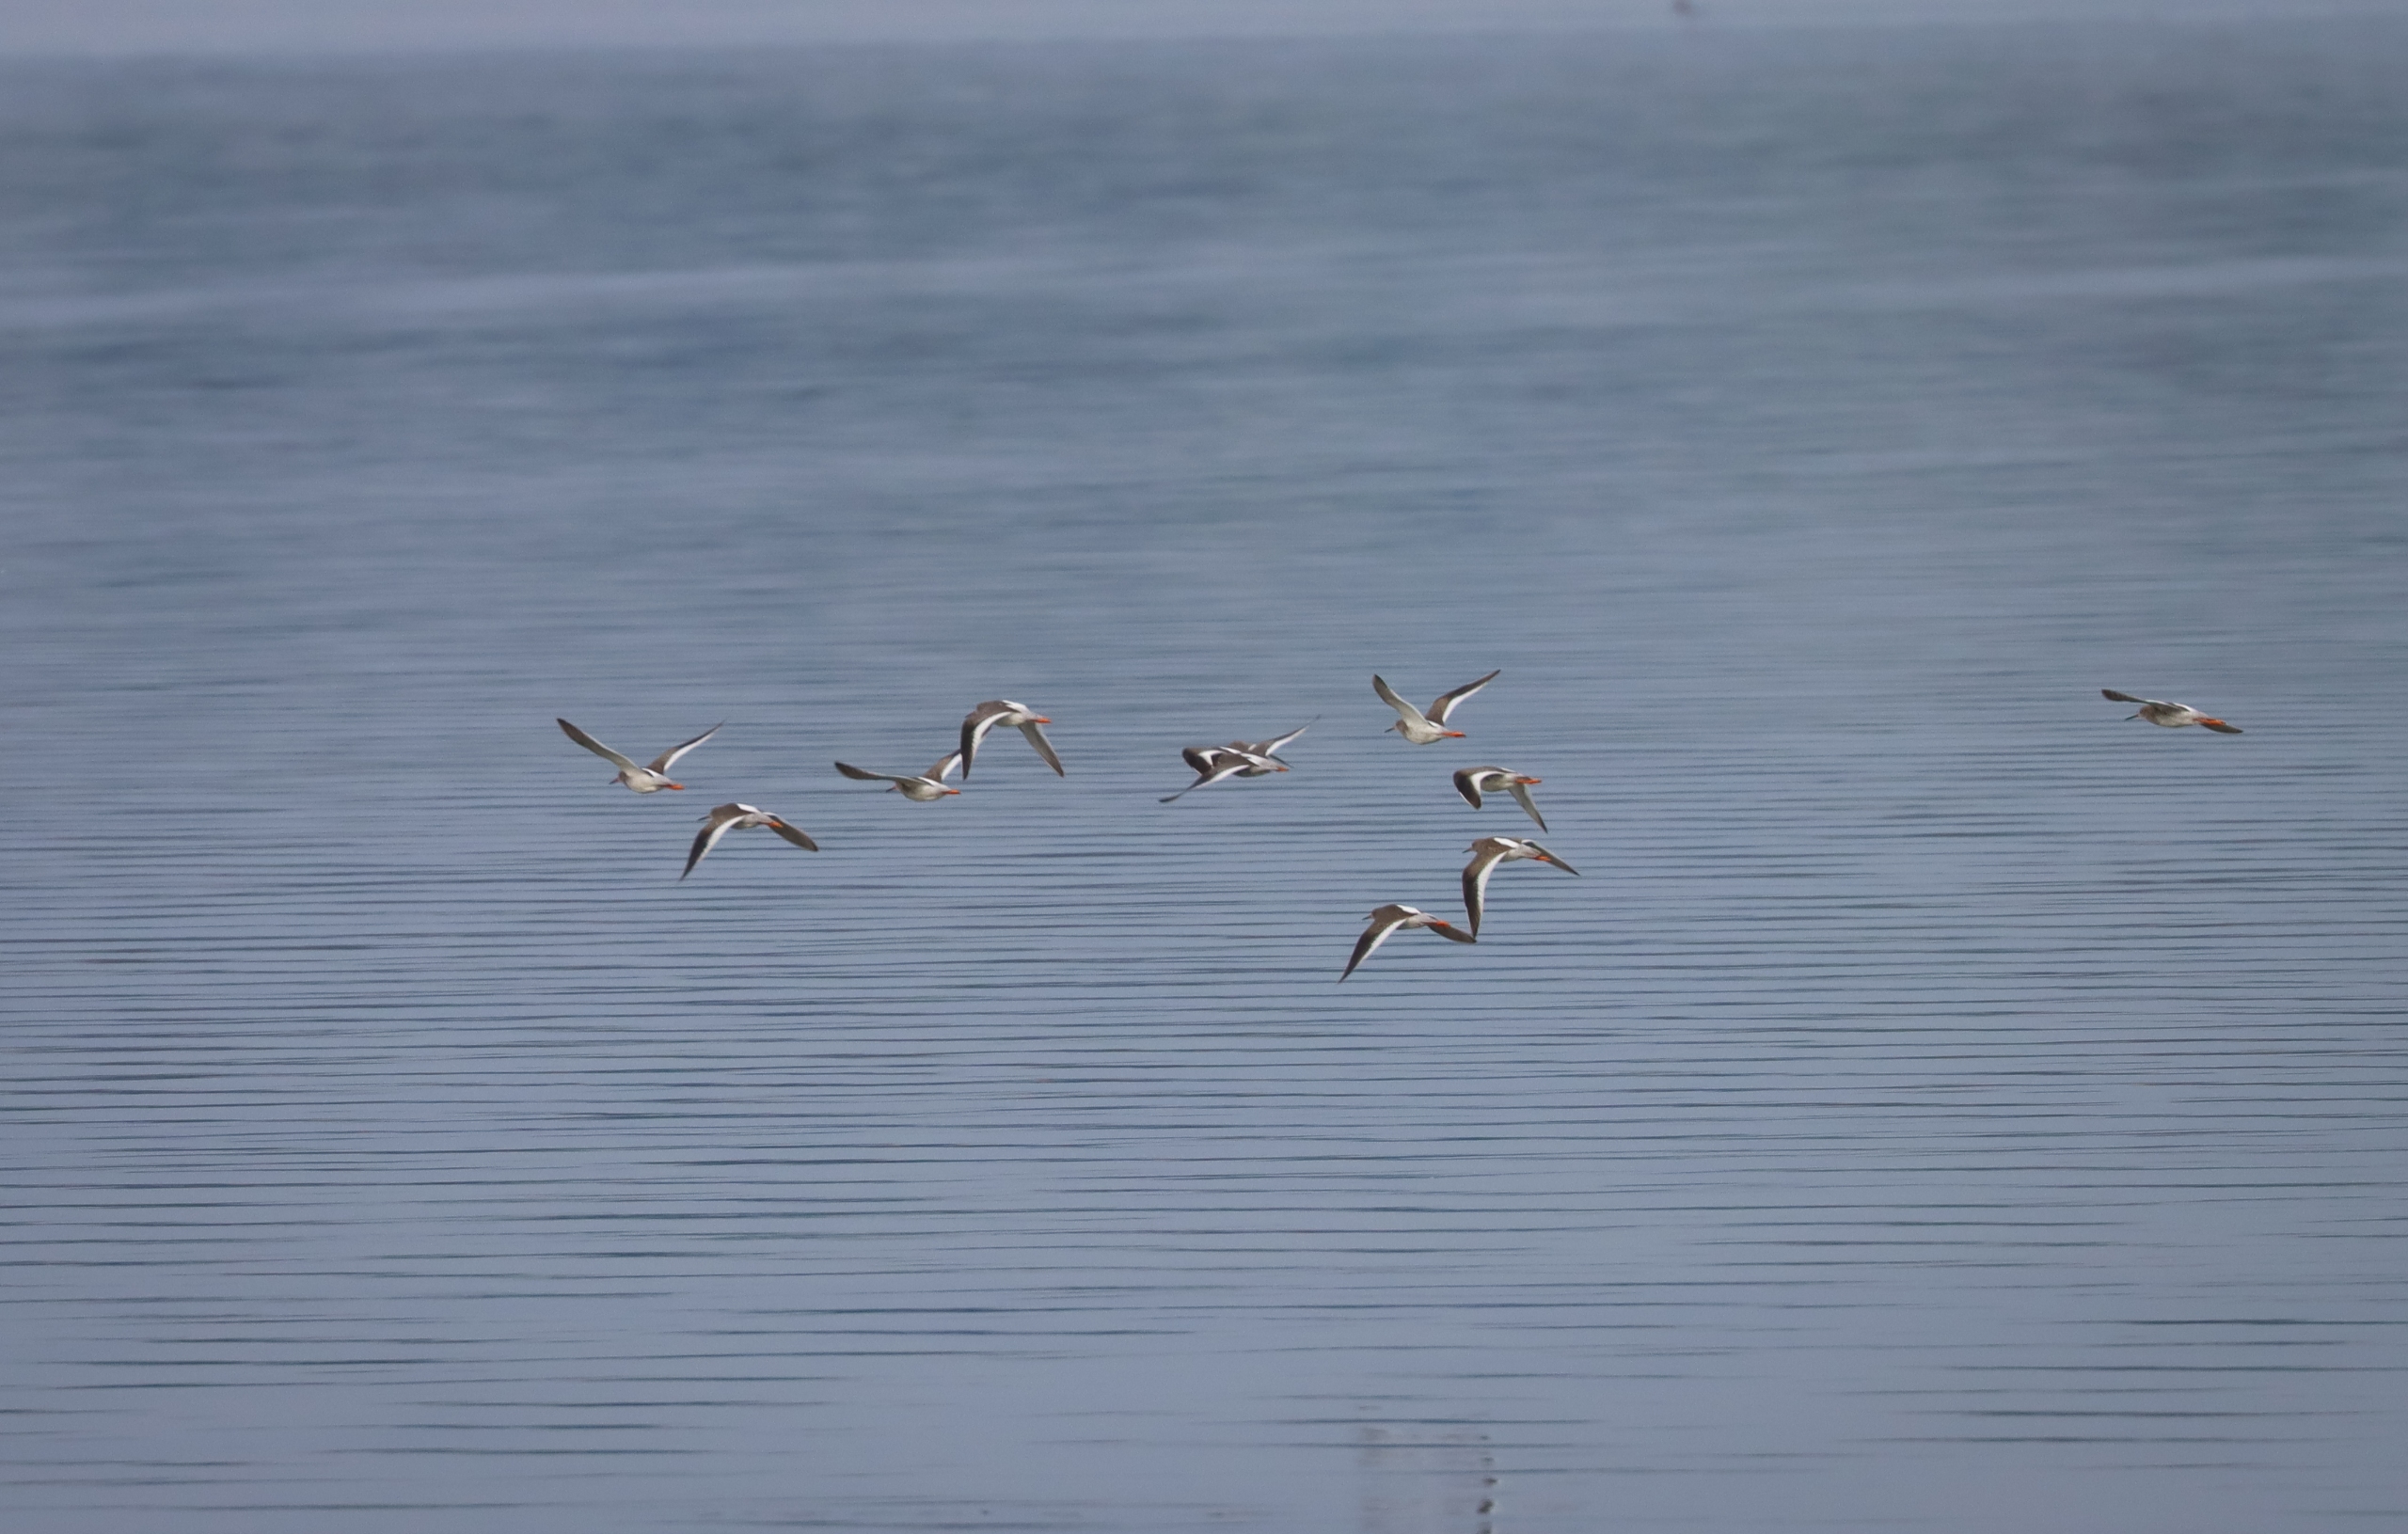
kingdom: Animalia
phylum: Chordata
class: Aves
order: Charadriiformes
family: Scolopacidae
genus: Tringa
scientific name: Tringa totanus
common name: Rødben
